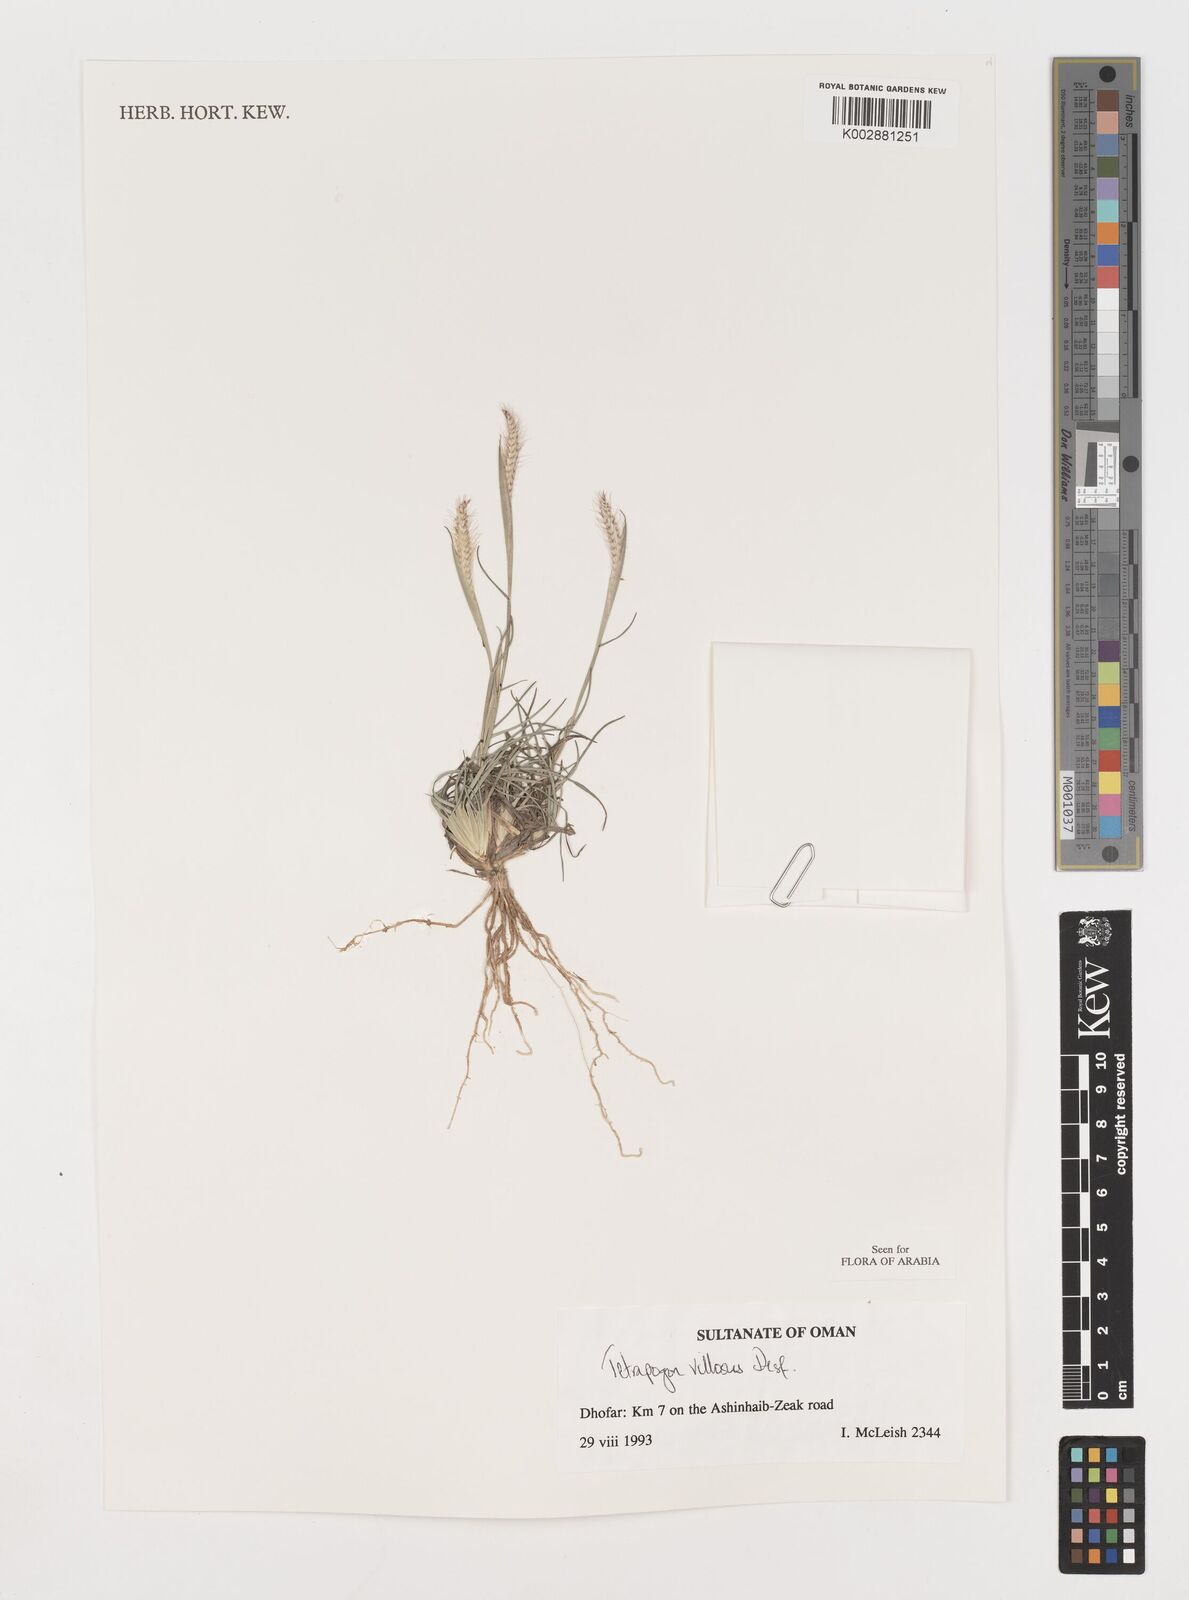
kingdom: Plantae
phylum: Tracheophyta
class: Liliopsida
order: Poales
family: Poaceae
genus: Tetrapogon
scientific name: Tetrapogon villosus
